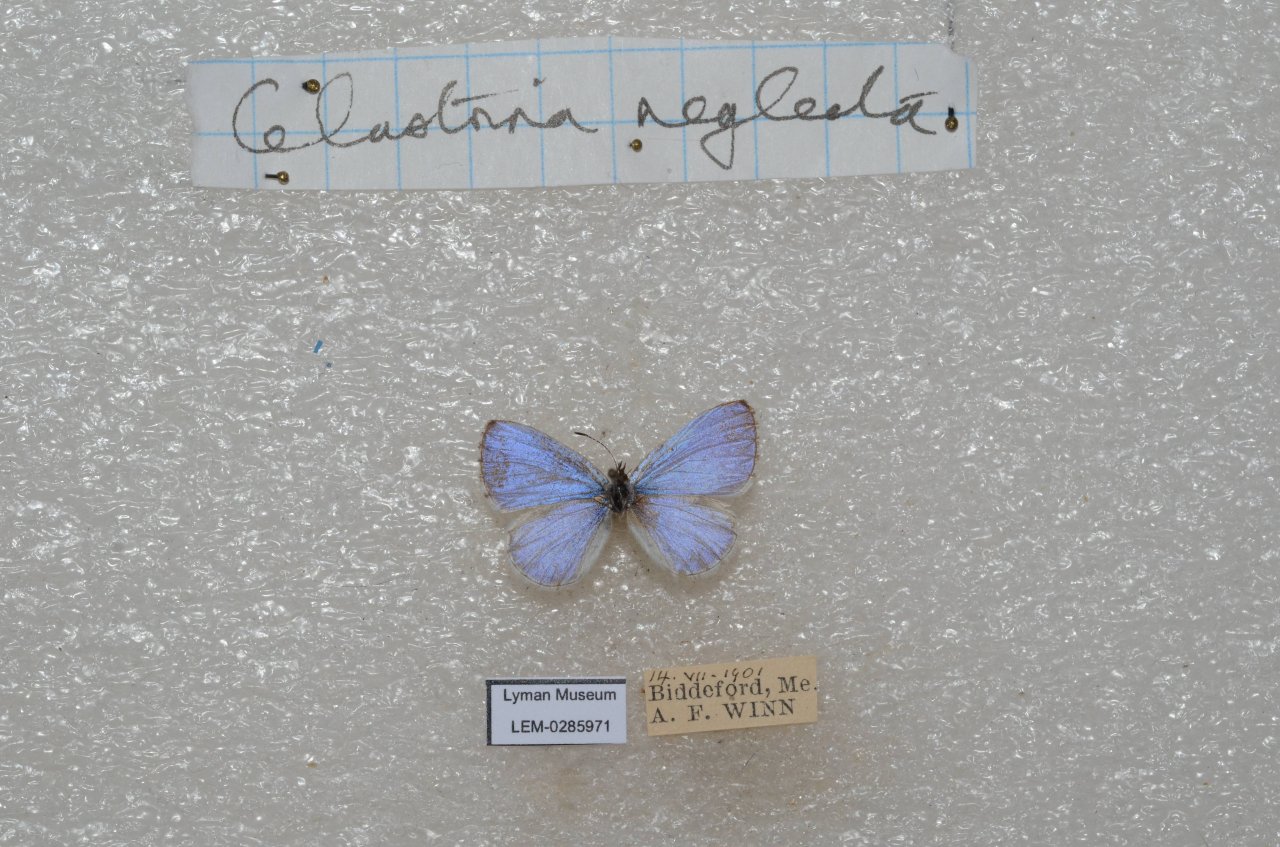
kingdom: Animalia
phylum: Arthropoda
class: Insecta
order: Lepidoptera
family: Lycaenidae
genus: Cyaniris
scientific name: Cyaniris neglecta
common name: Summer Azure
